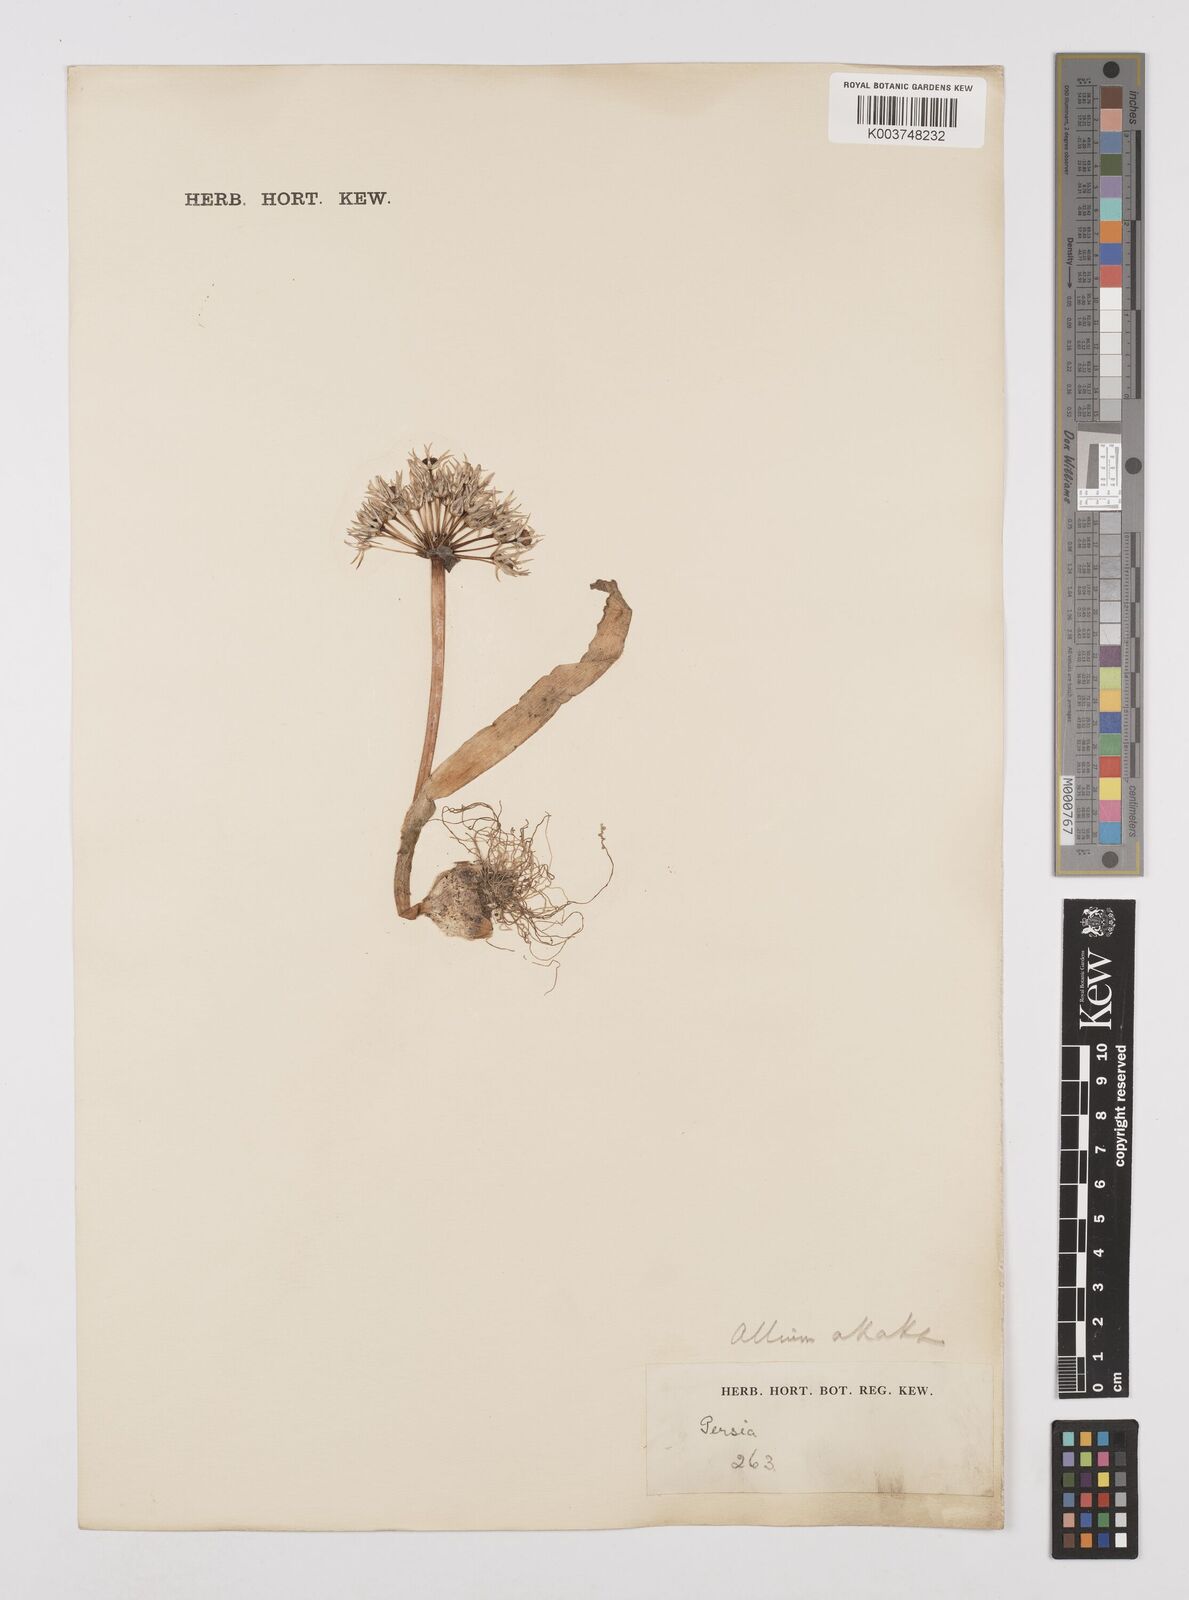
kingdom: Plantae
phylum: Tracheophyta
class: Liliopsida
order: Asparagales
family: Amaryllidaceae
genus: Allium
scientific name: Allium akaka
